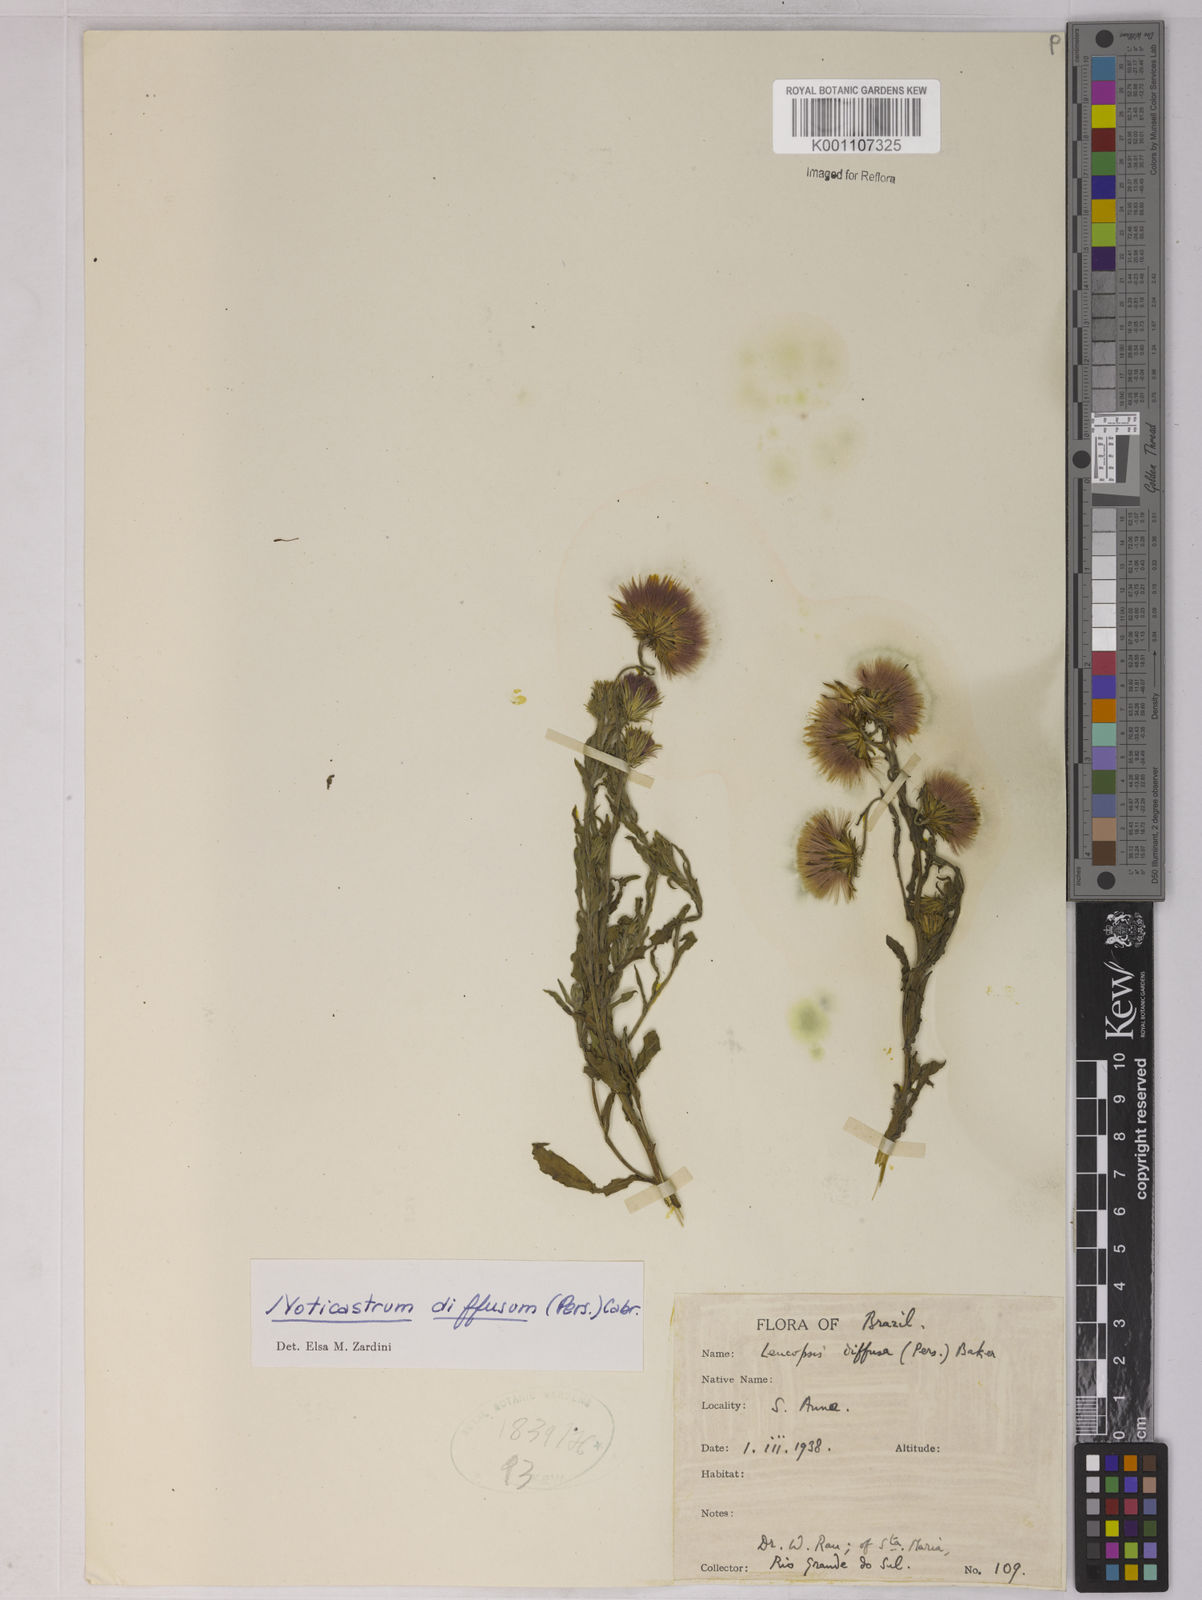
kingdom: Plantae
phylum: Tracheophyta
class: Magnoliopsida
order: Asterales
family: Asteraceae
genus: Noticastrum
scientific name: Noticastrum diffusum
